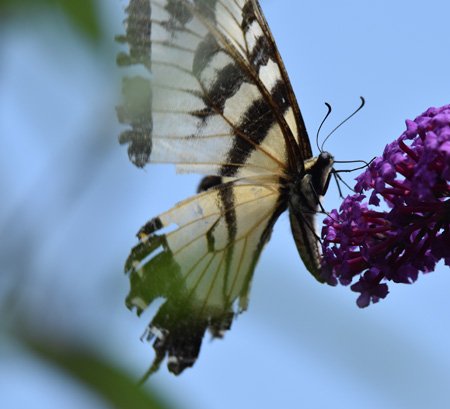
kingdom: Animalia
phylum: Arthropoda
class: Insecta
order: Lepidoptera
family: Papilionidae
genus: Pterourus
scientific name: Pterourus glaucus
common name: Eastern Tiger Swallowtail
